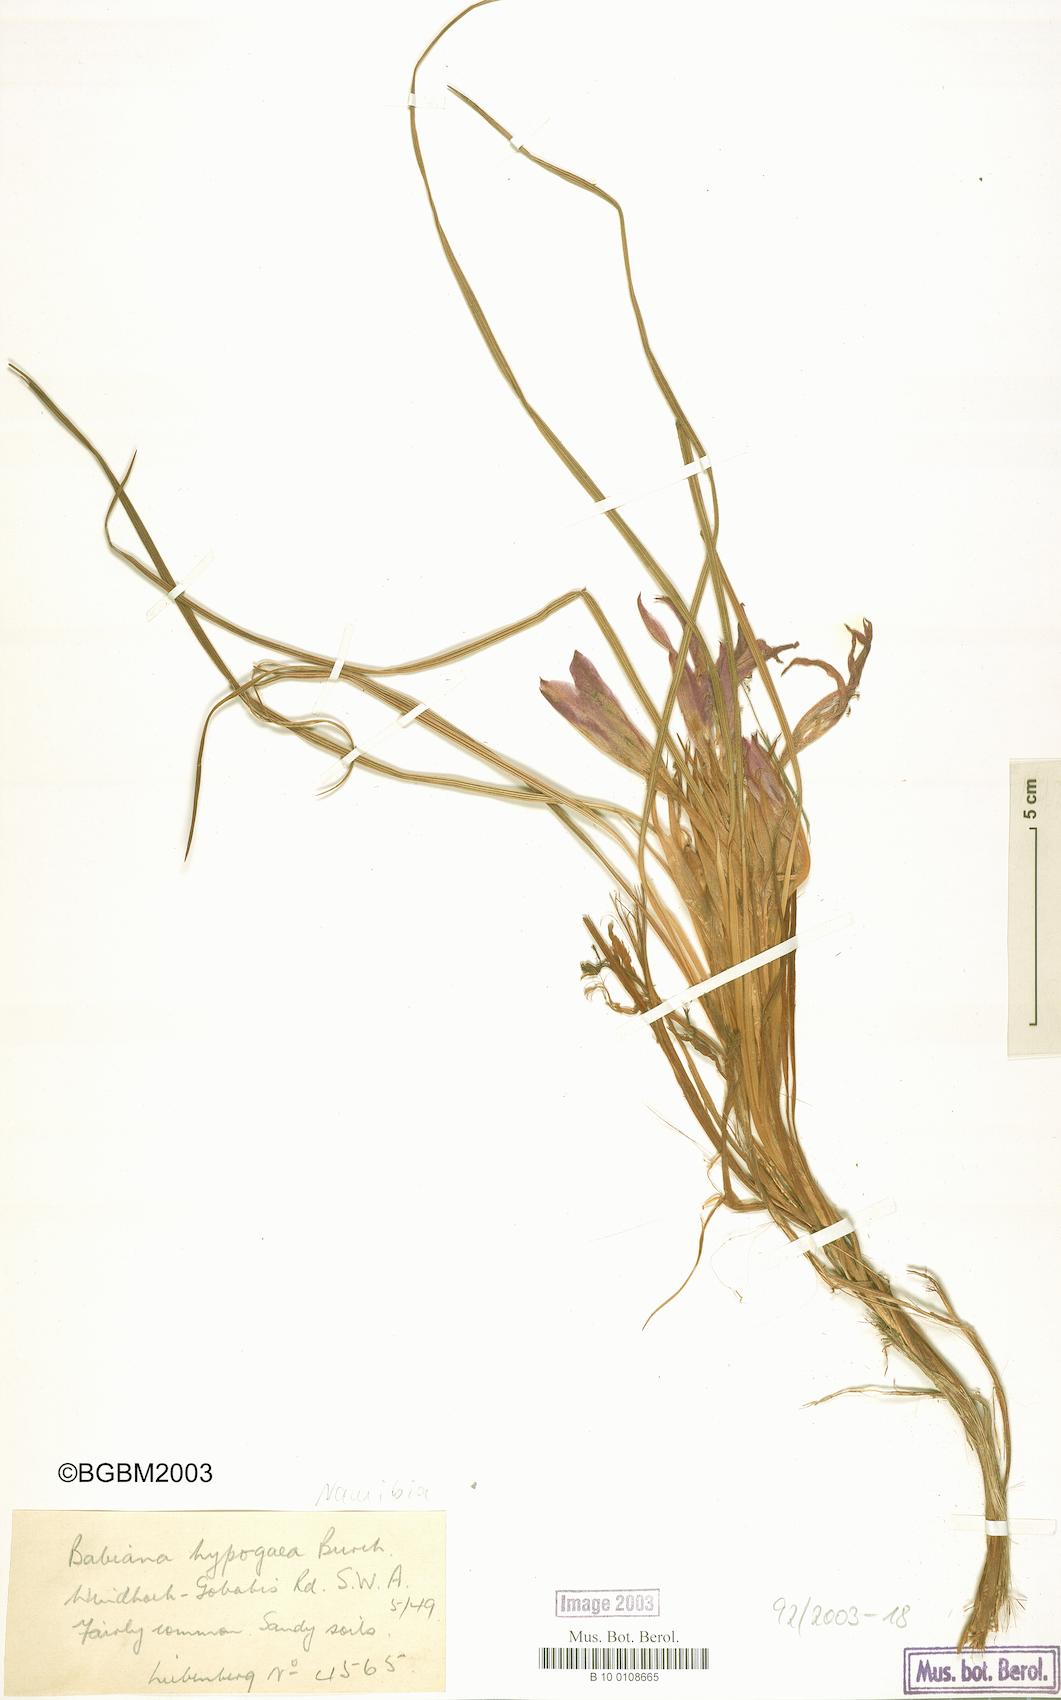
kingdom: Plantae
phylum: Tracheophyta
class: Liliopsida
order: Asparagales
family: Iridaceae
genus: Babiana
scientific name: Babiana hypogaea
